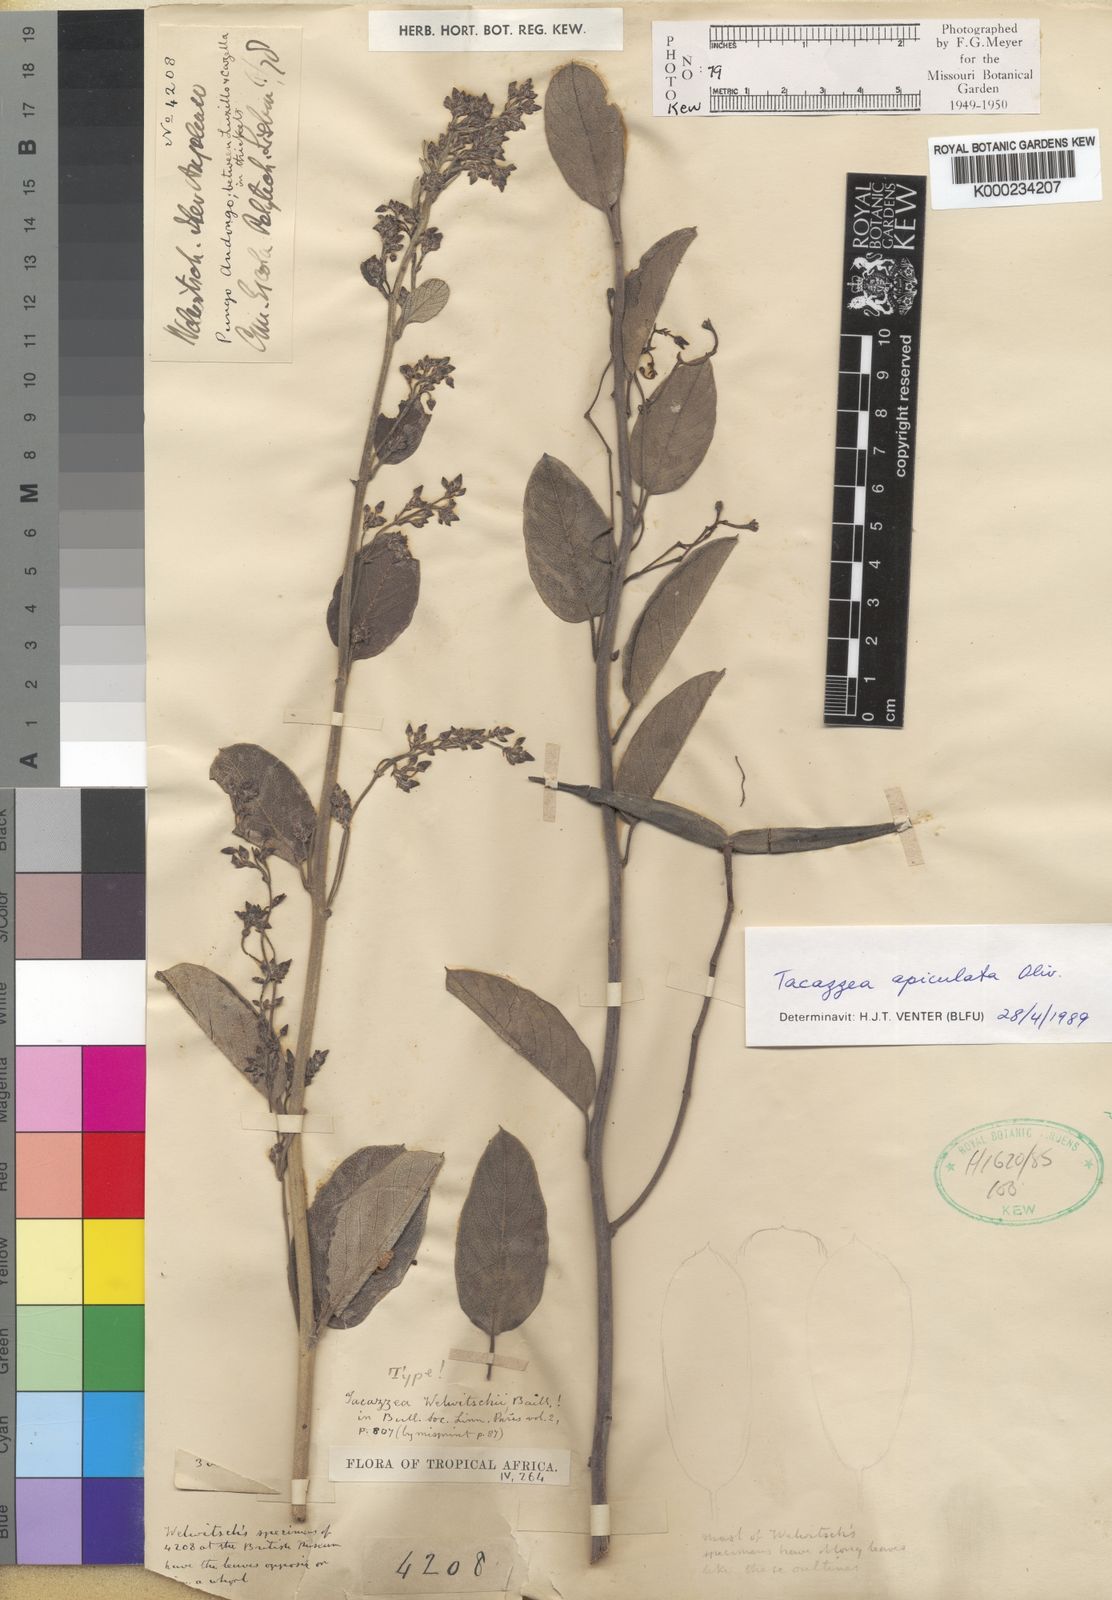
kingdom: Plantae
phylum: Tracheophyta
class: Magnoliopsida
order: Gentianales
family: Apocynaceae
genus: Tacazzea
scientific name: Tacazzea apiculata
